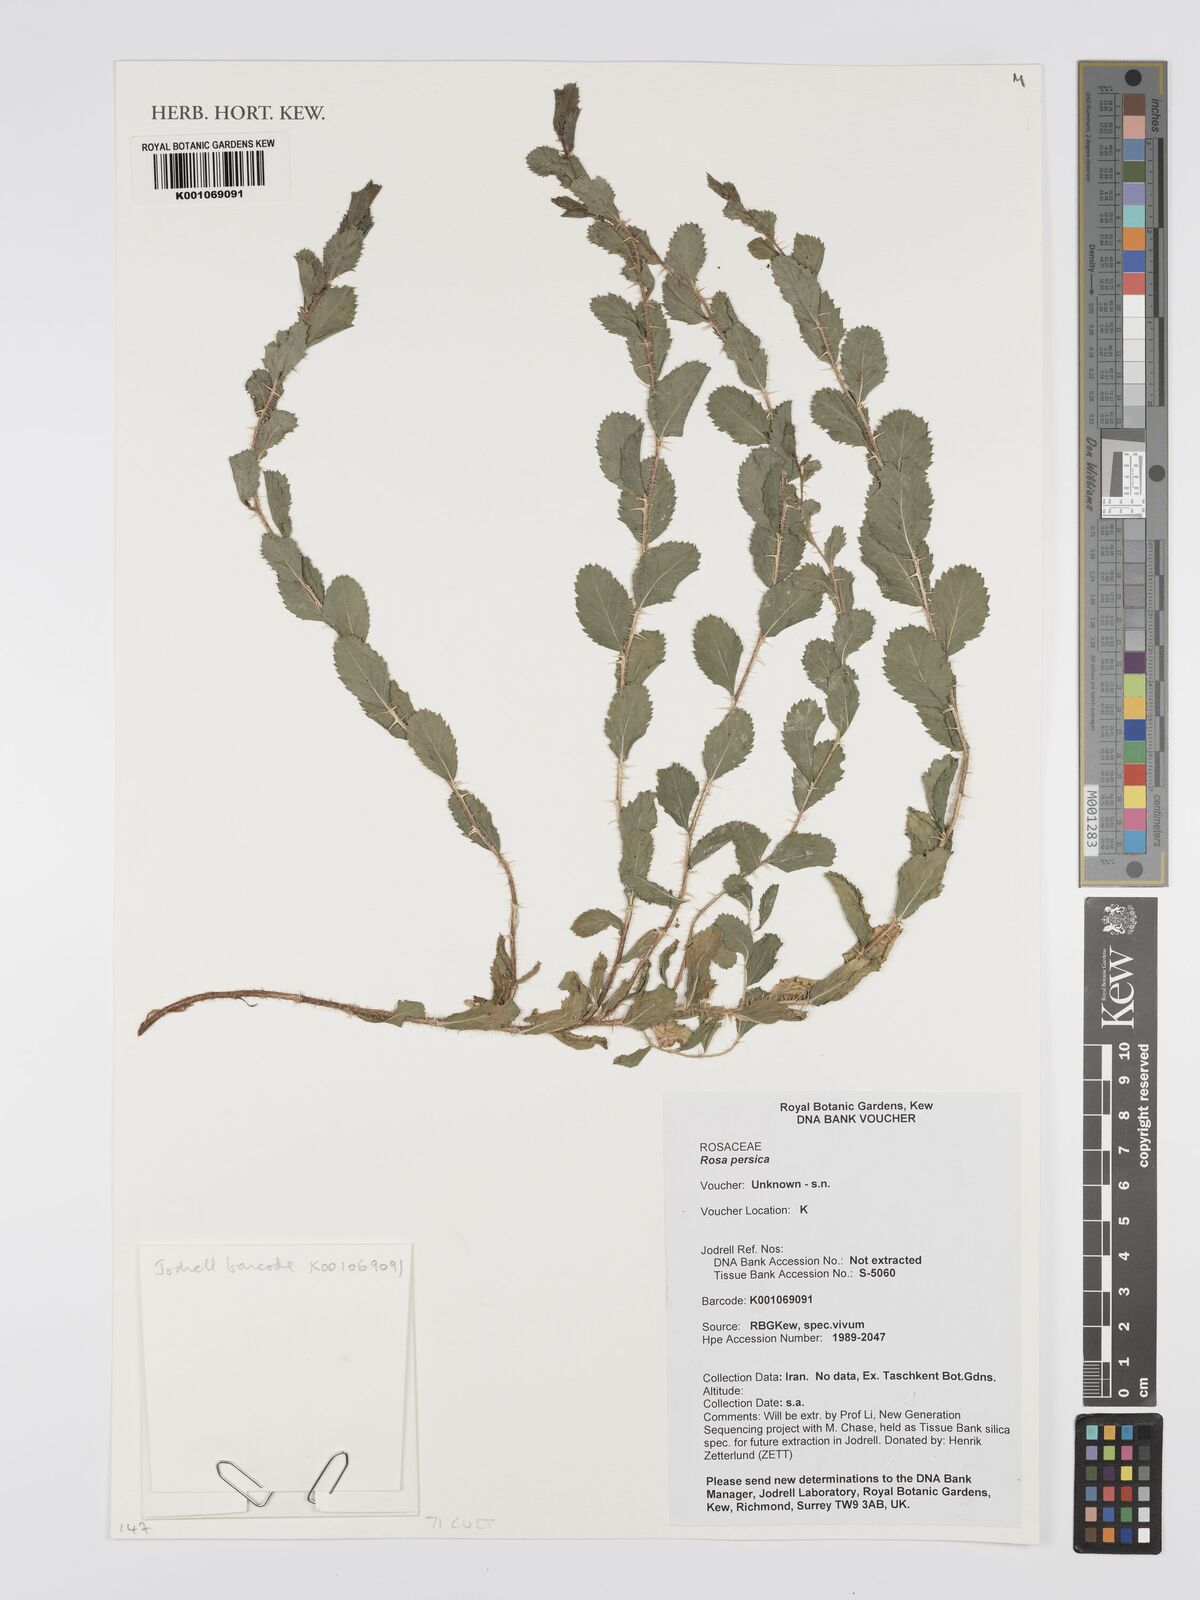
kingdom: Plantae
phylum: Tracheophyta
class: Magnoliopsida
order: Rosales
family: Rosaceae
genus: Rosa
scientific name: Rosa persica
